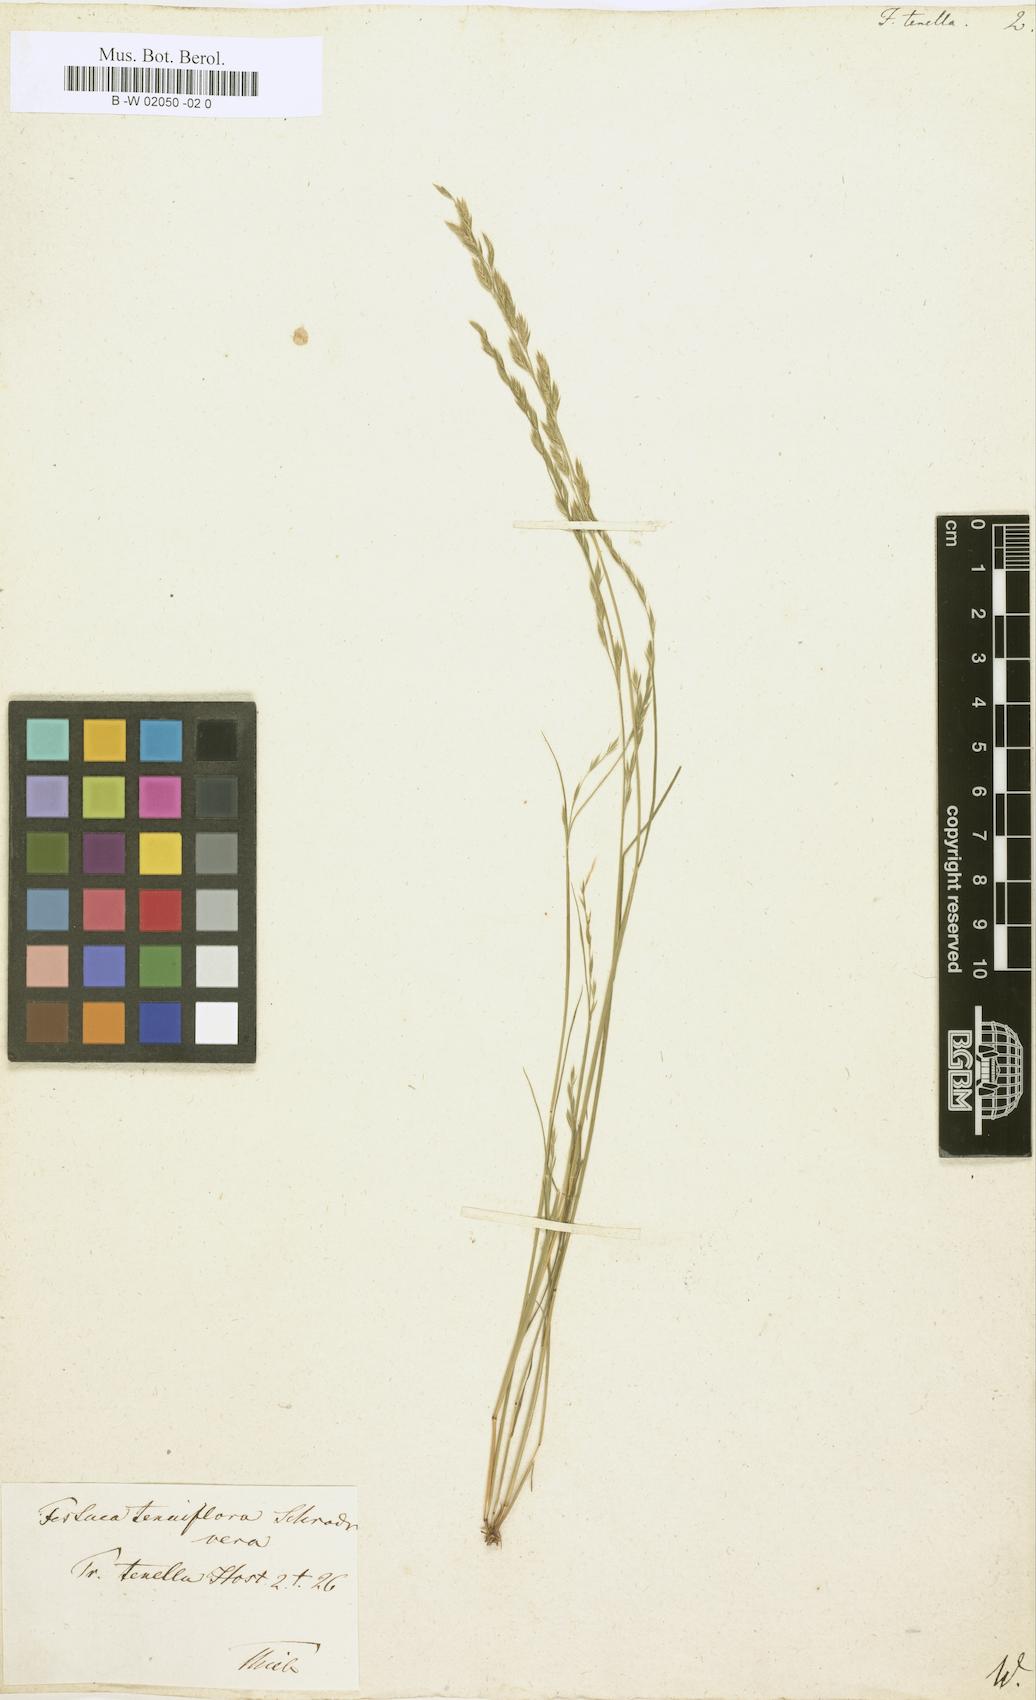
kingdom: Plantae
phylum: Tracheophyta
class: Liliopsida
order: Poales
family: Poaceae
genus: Festuca
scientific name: Festuca octoflora
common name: Sixweeks grass
